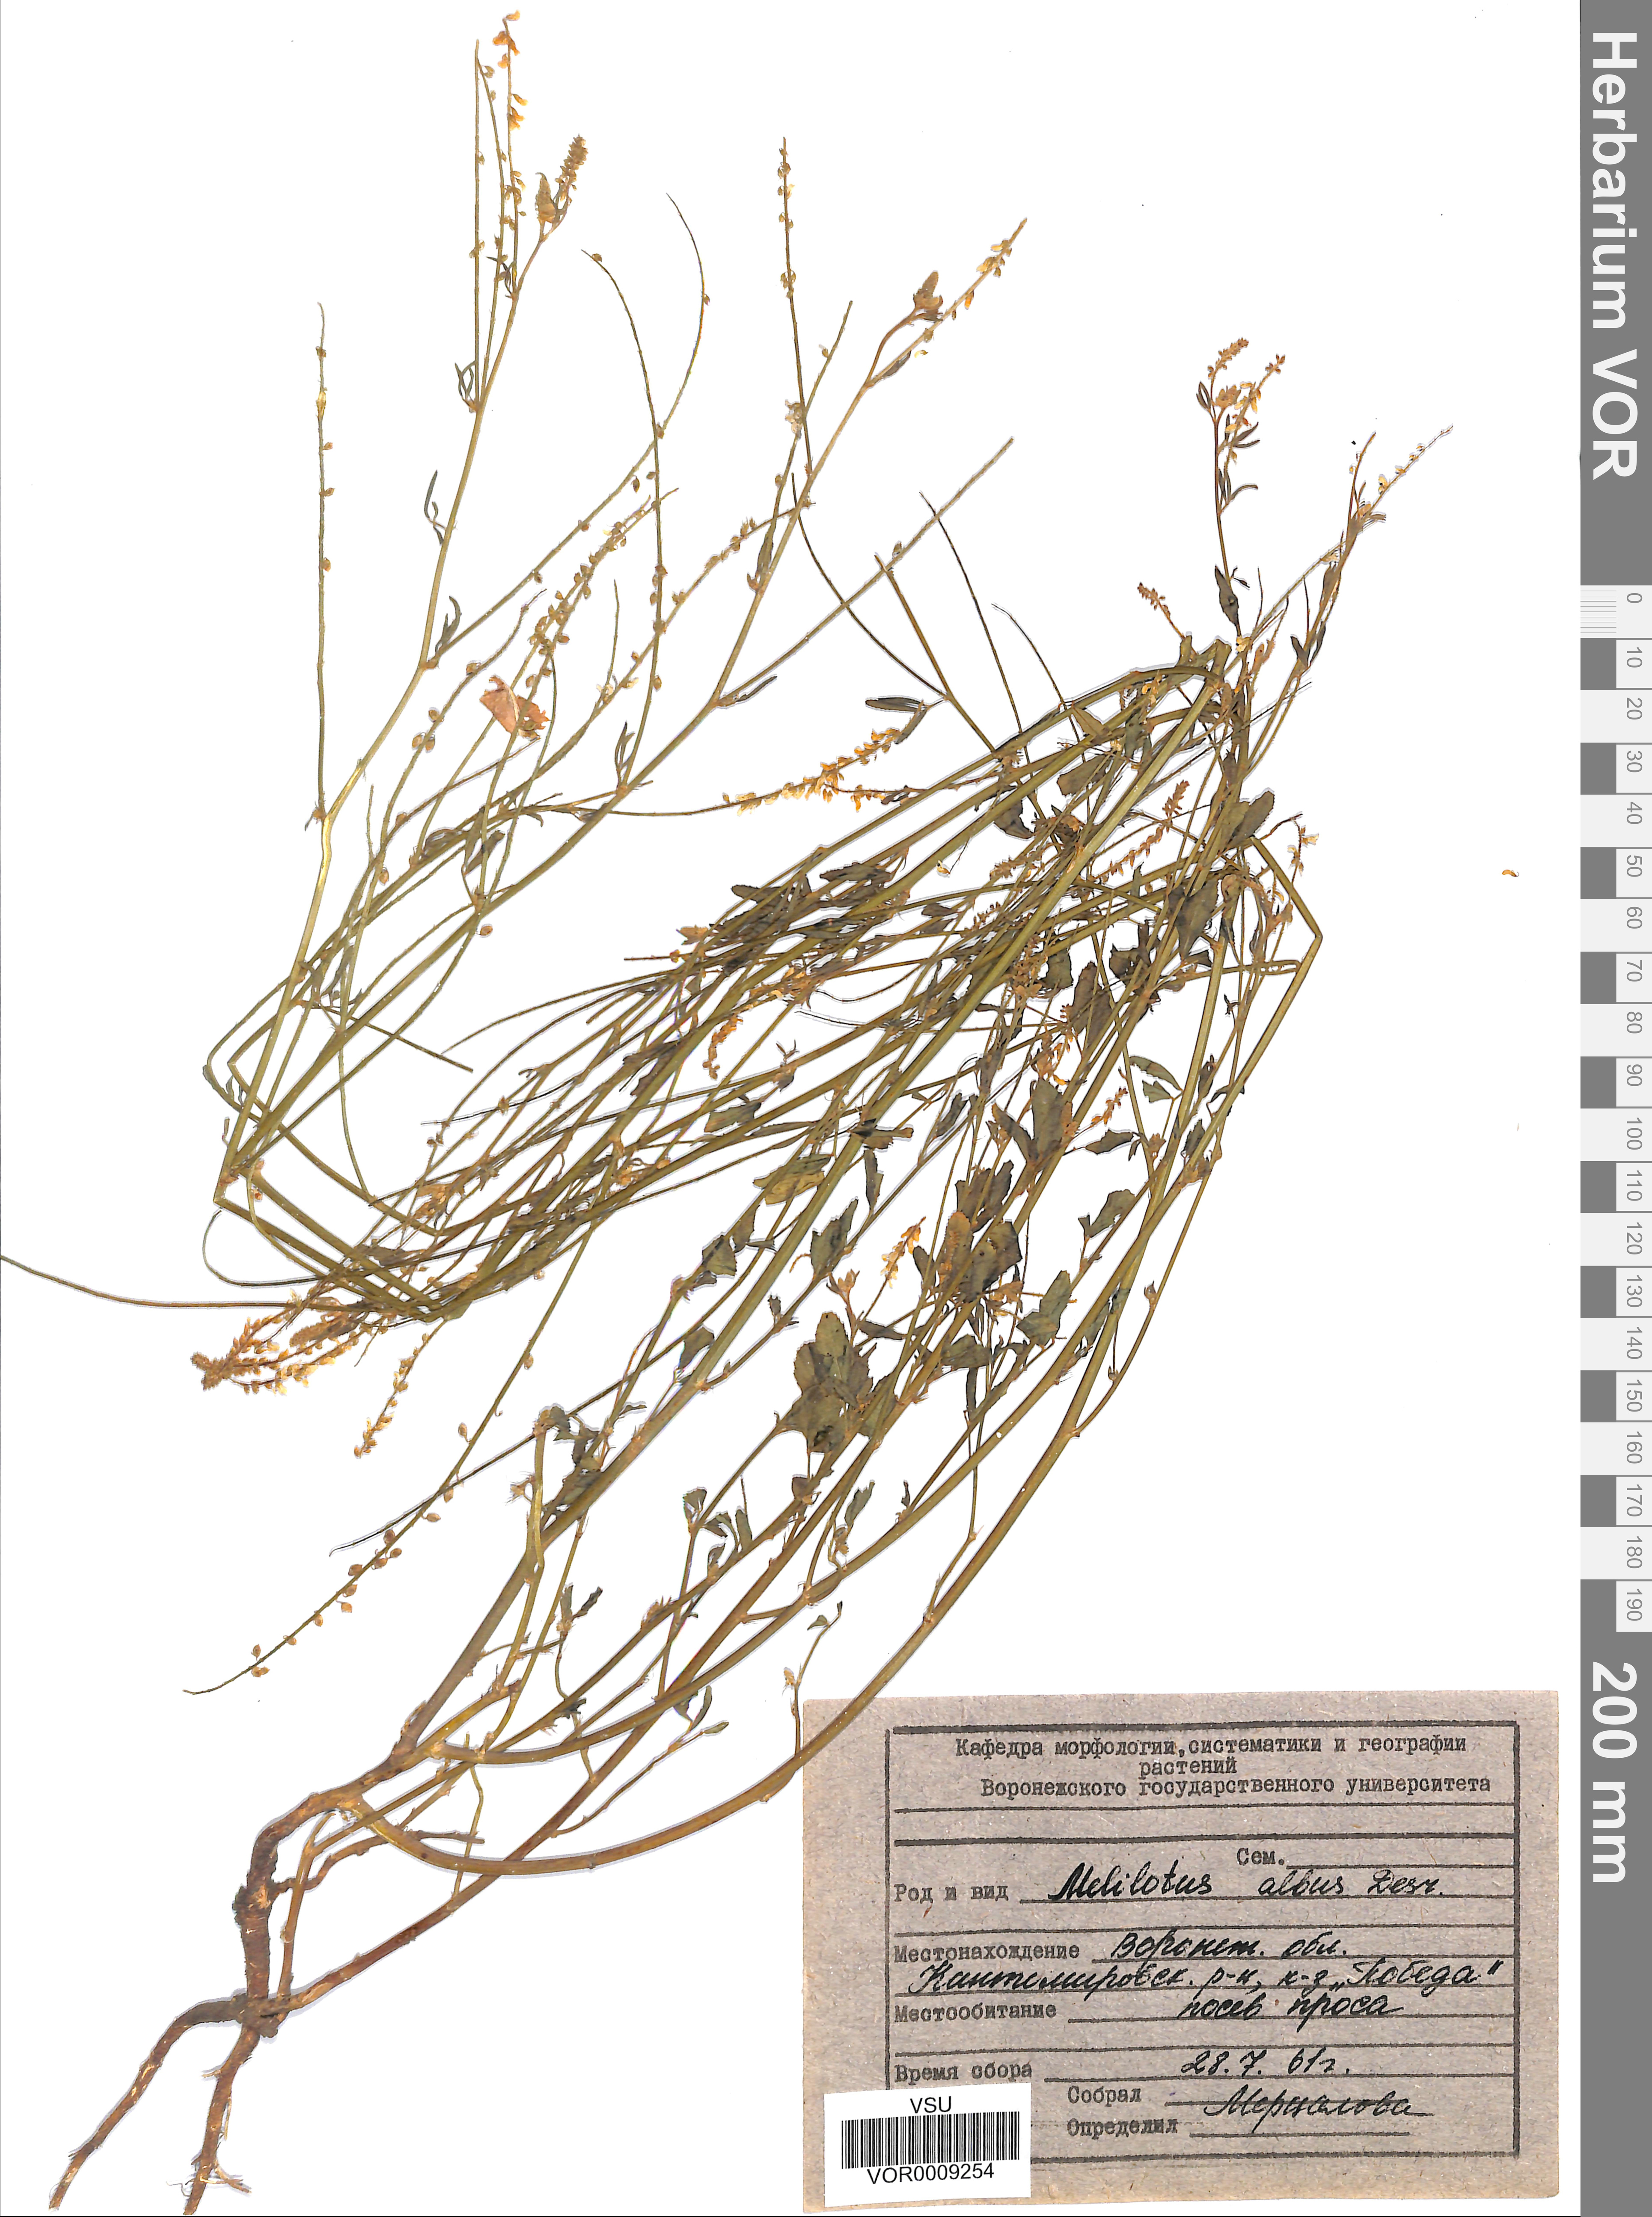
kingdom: Plantae
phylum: Tracheophyta
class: Magnoliopsida
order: Fabales
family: Fabaceae
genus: Melilotus
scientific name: Melilotus albus
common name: White melilot
